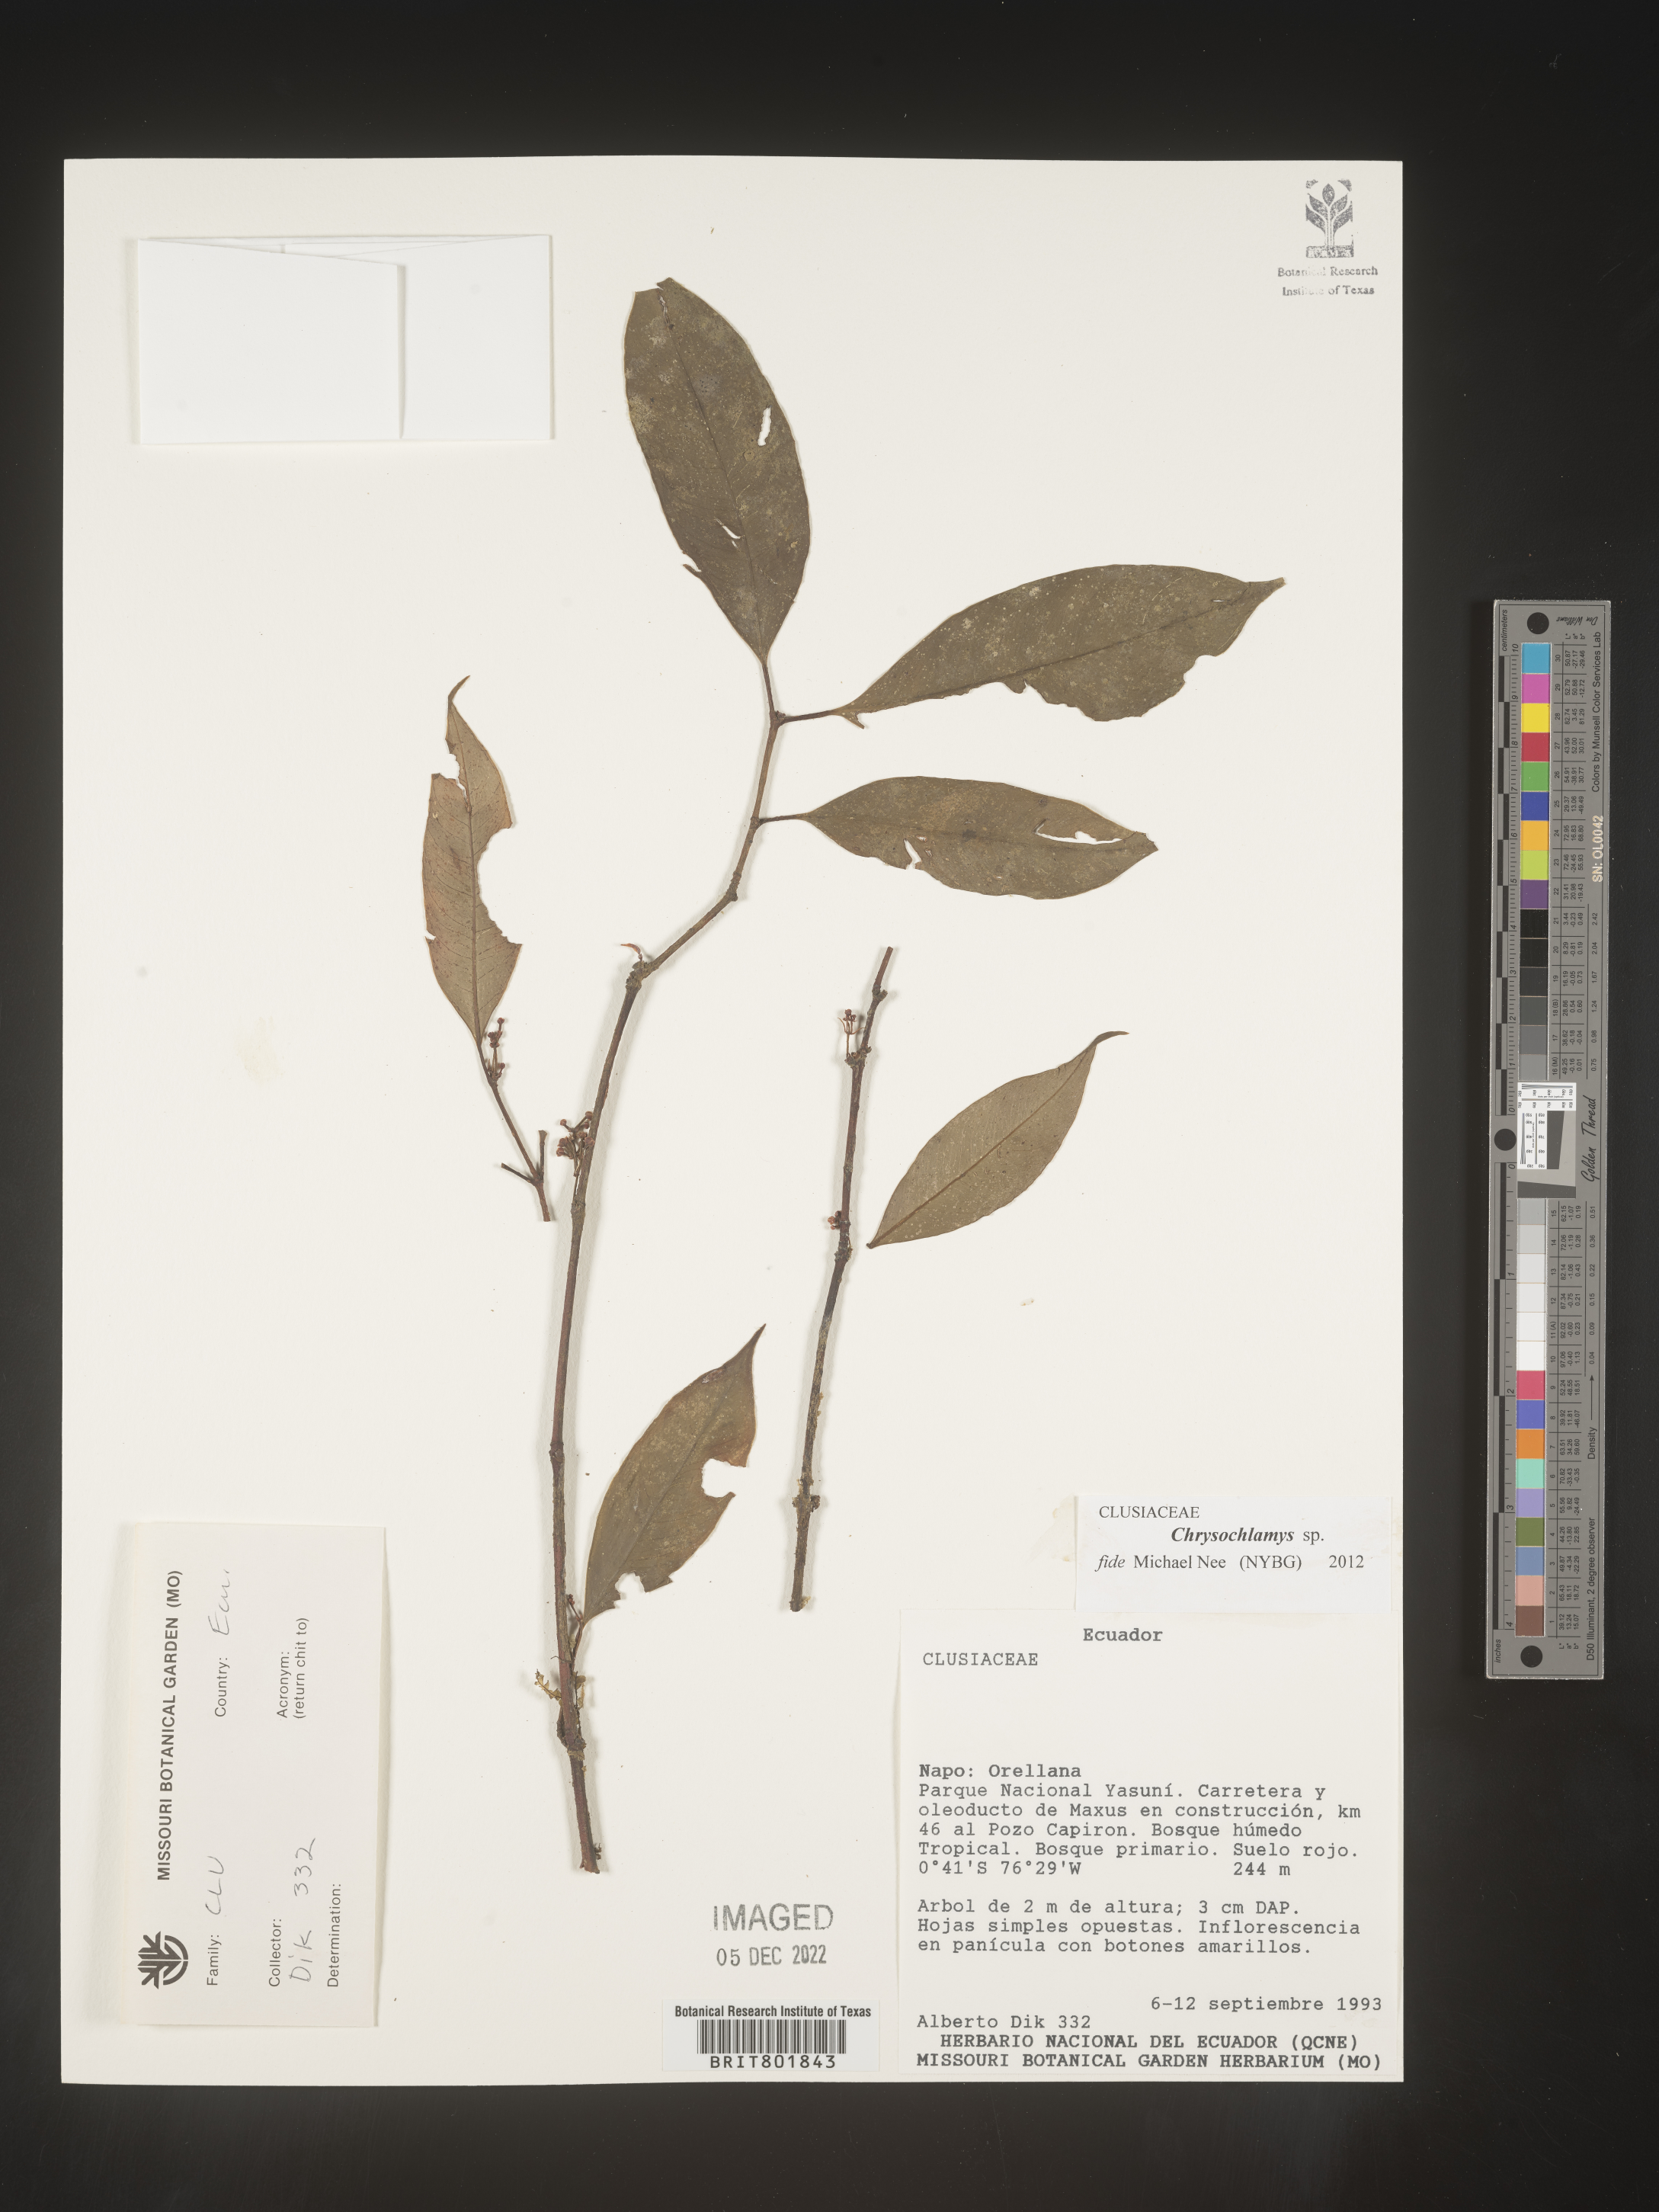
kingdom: Plantae
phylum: Tracheophyta
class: Magnoliopsida
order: Malpighiales
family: Clusiaceae
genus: Chrysochlamys
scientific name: Chrysochlamys
